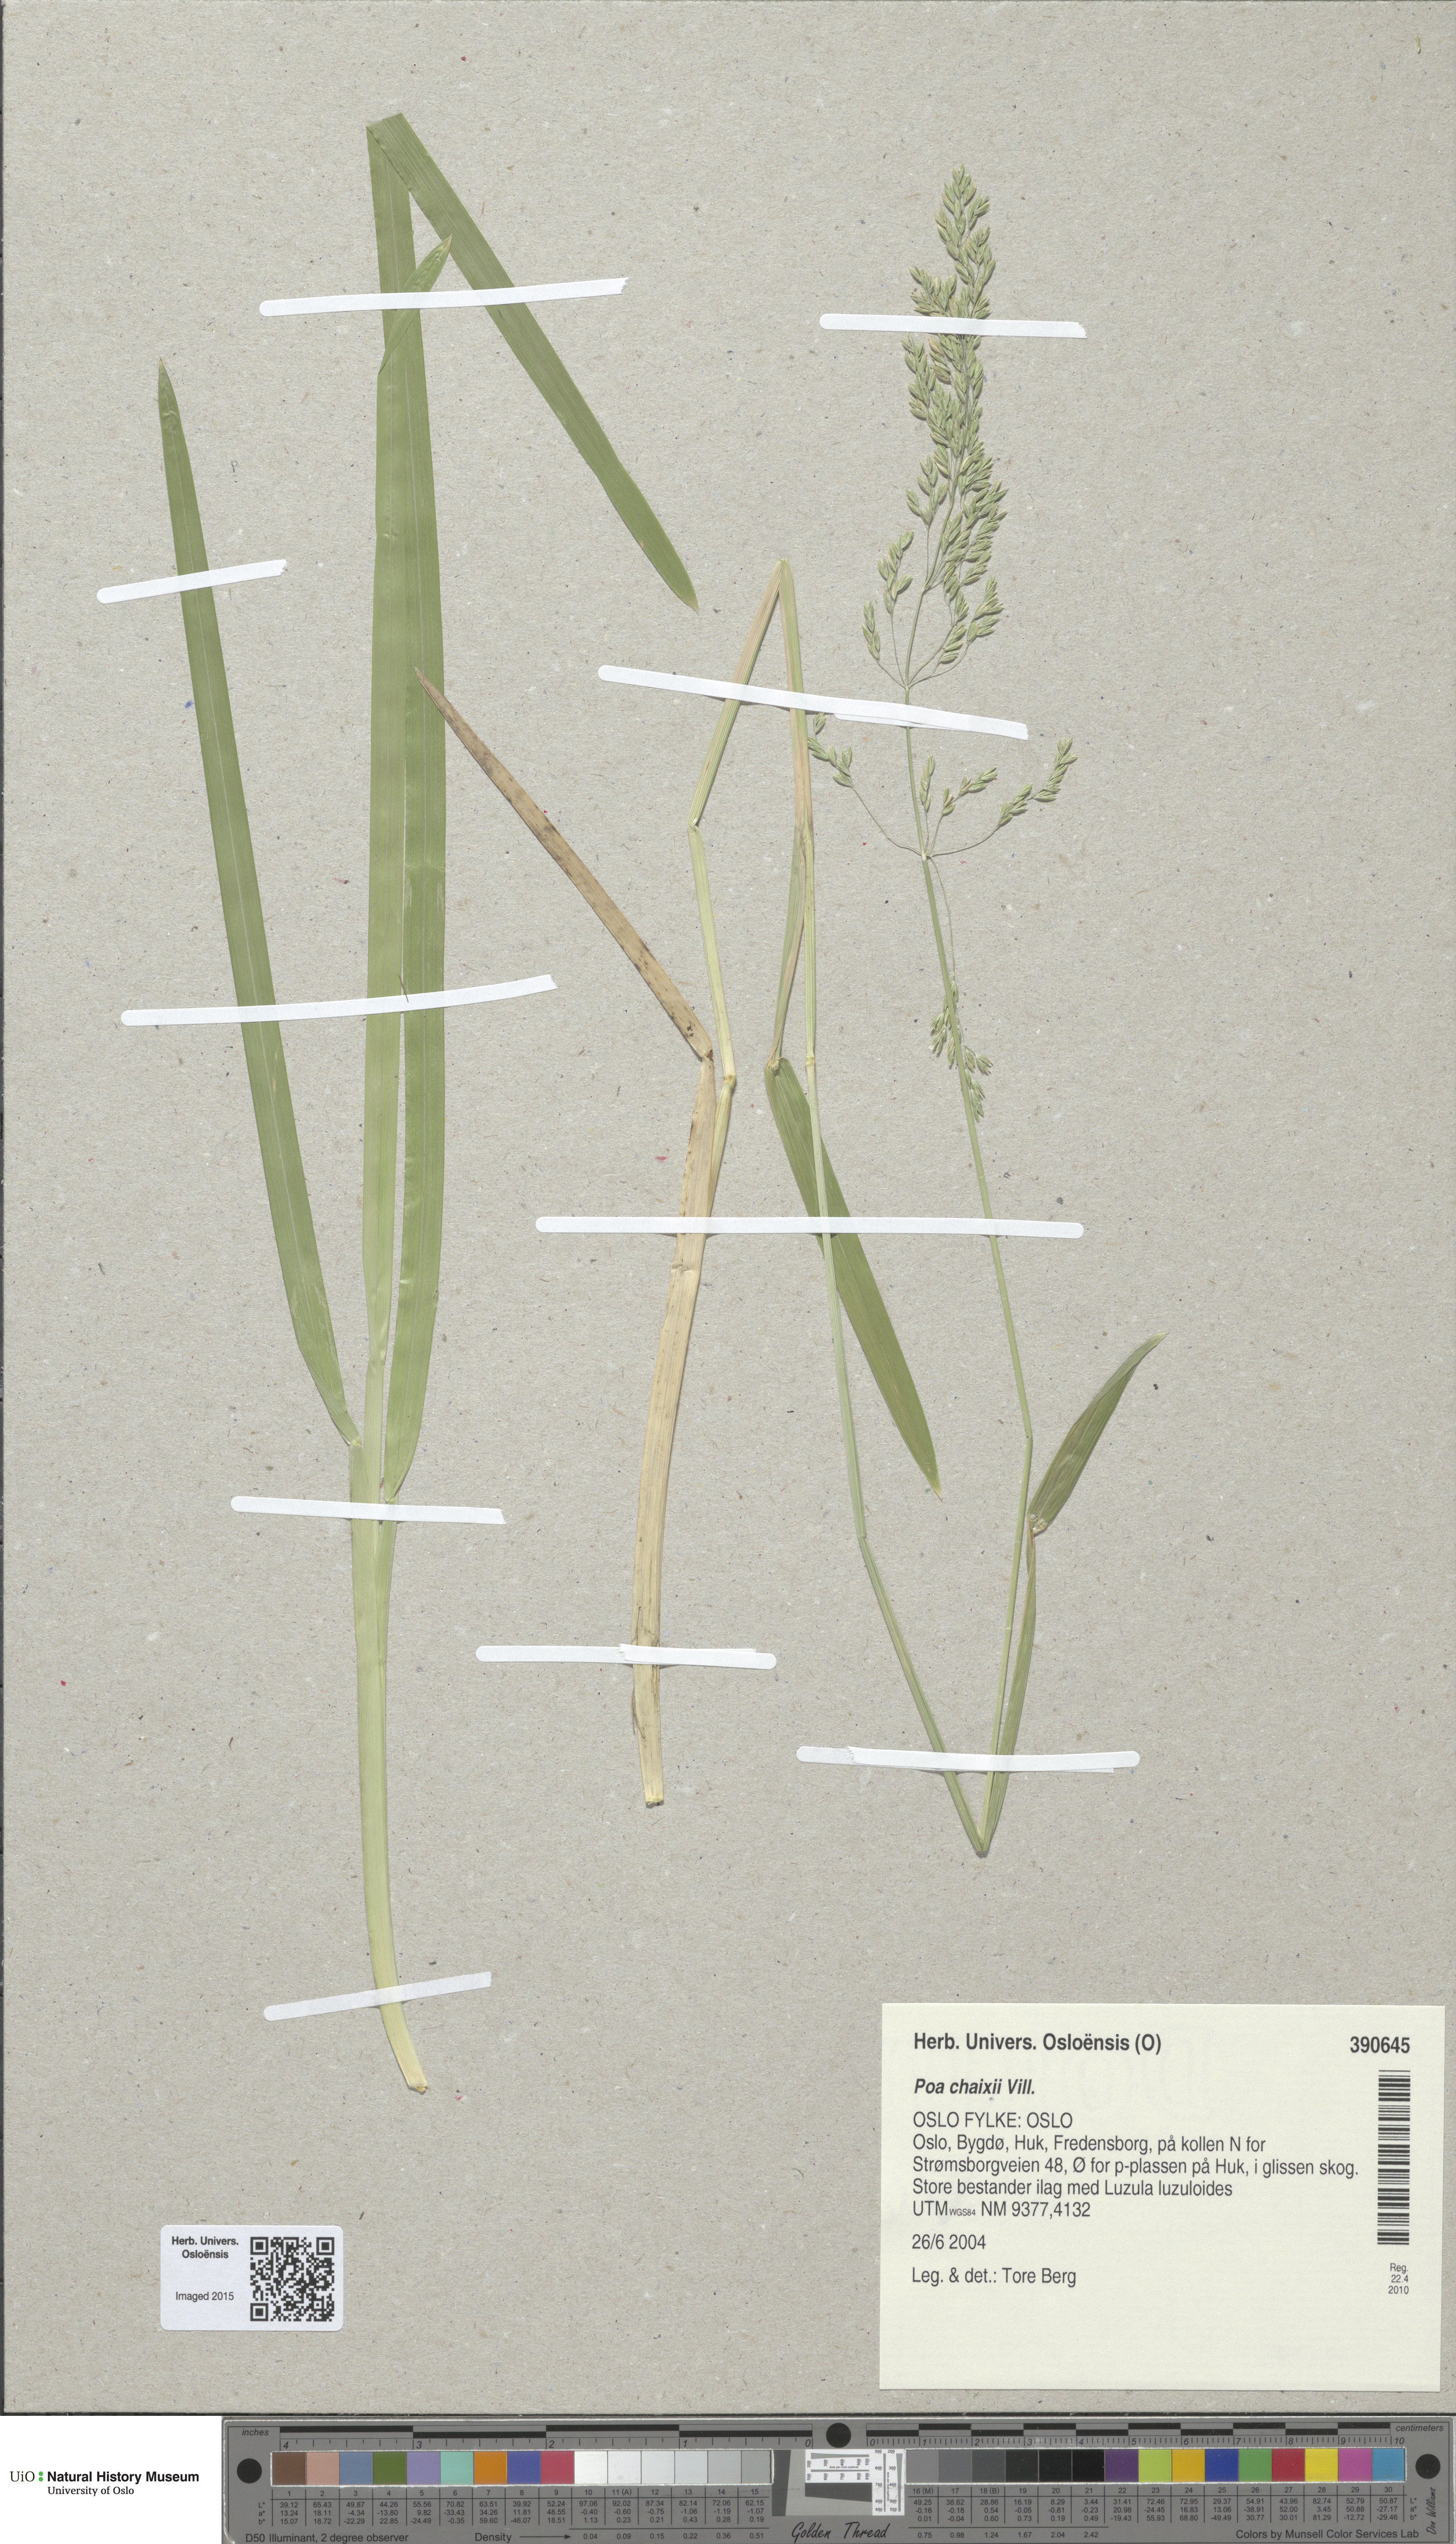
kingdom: Plantae
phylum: Tracheophyta
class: Liliopsida
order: Poales
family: Poaceae
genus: Poa
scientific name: Poa chaixii
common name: Broad-leaved meadow-grass
